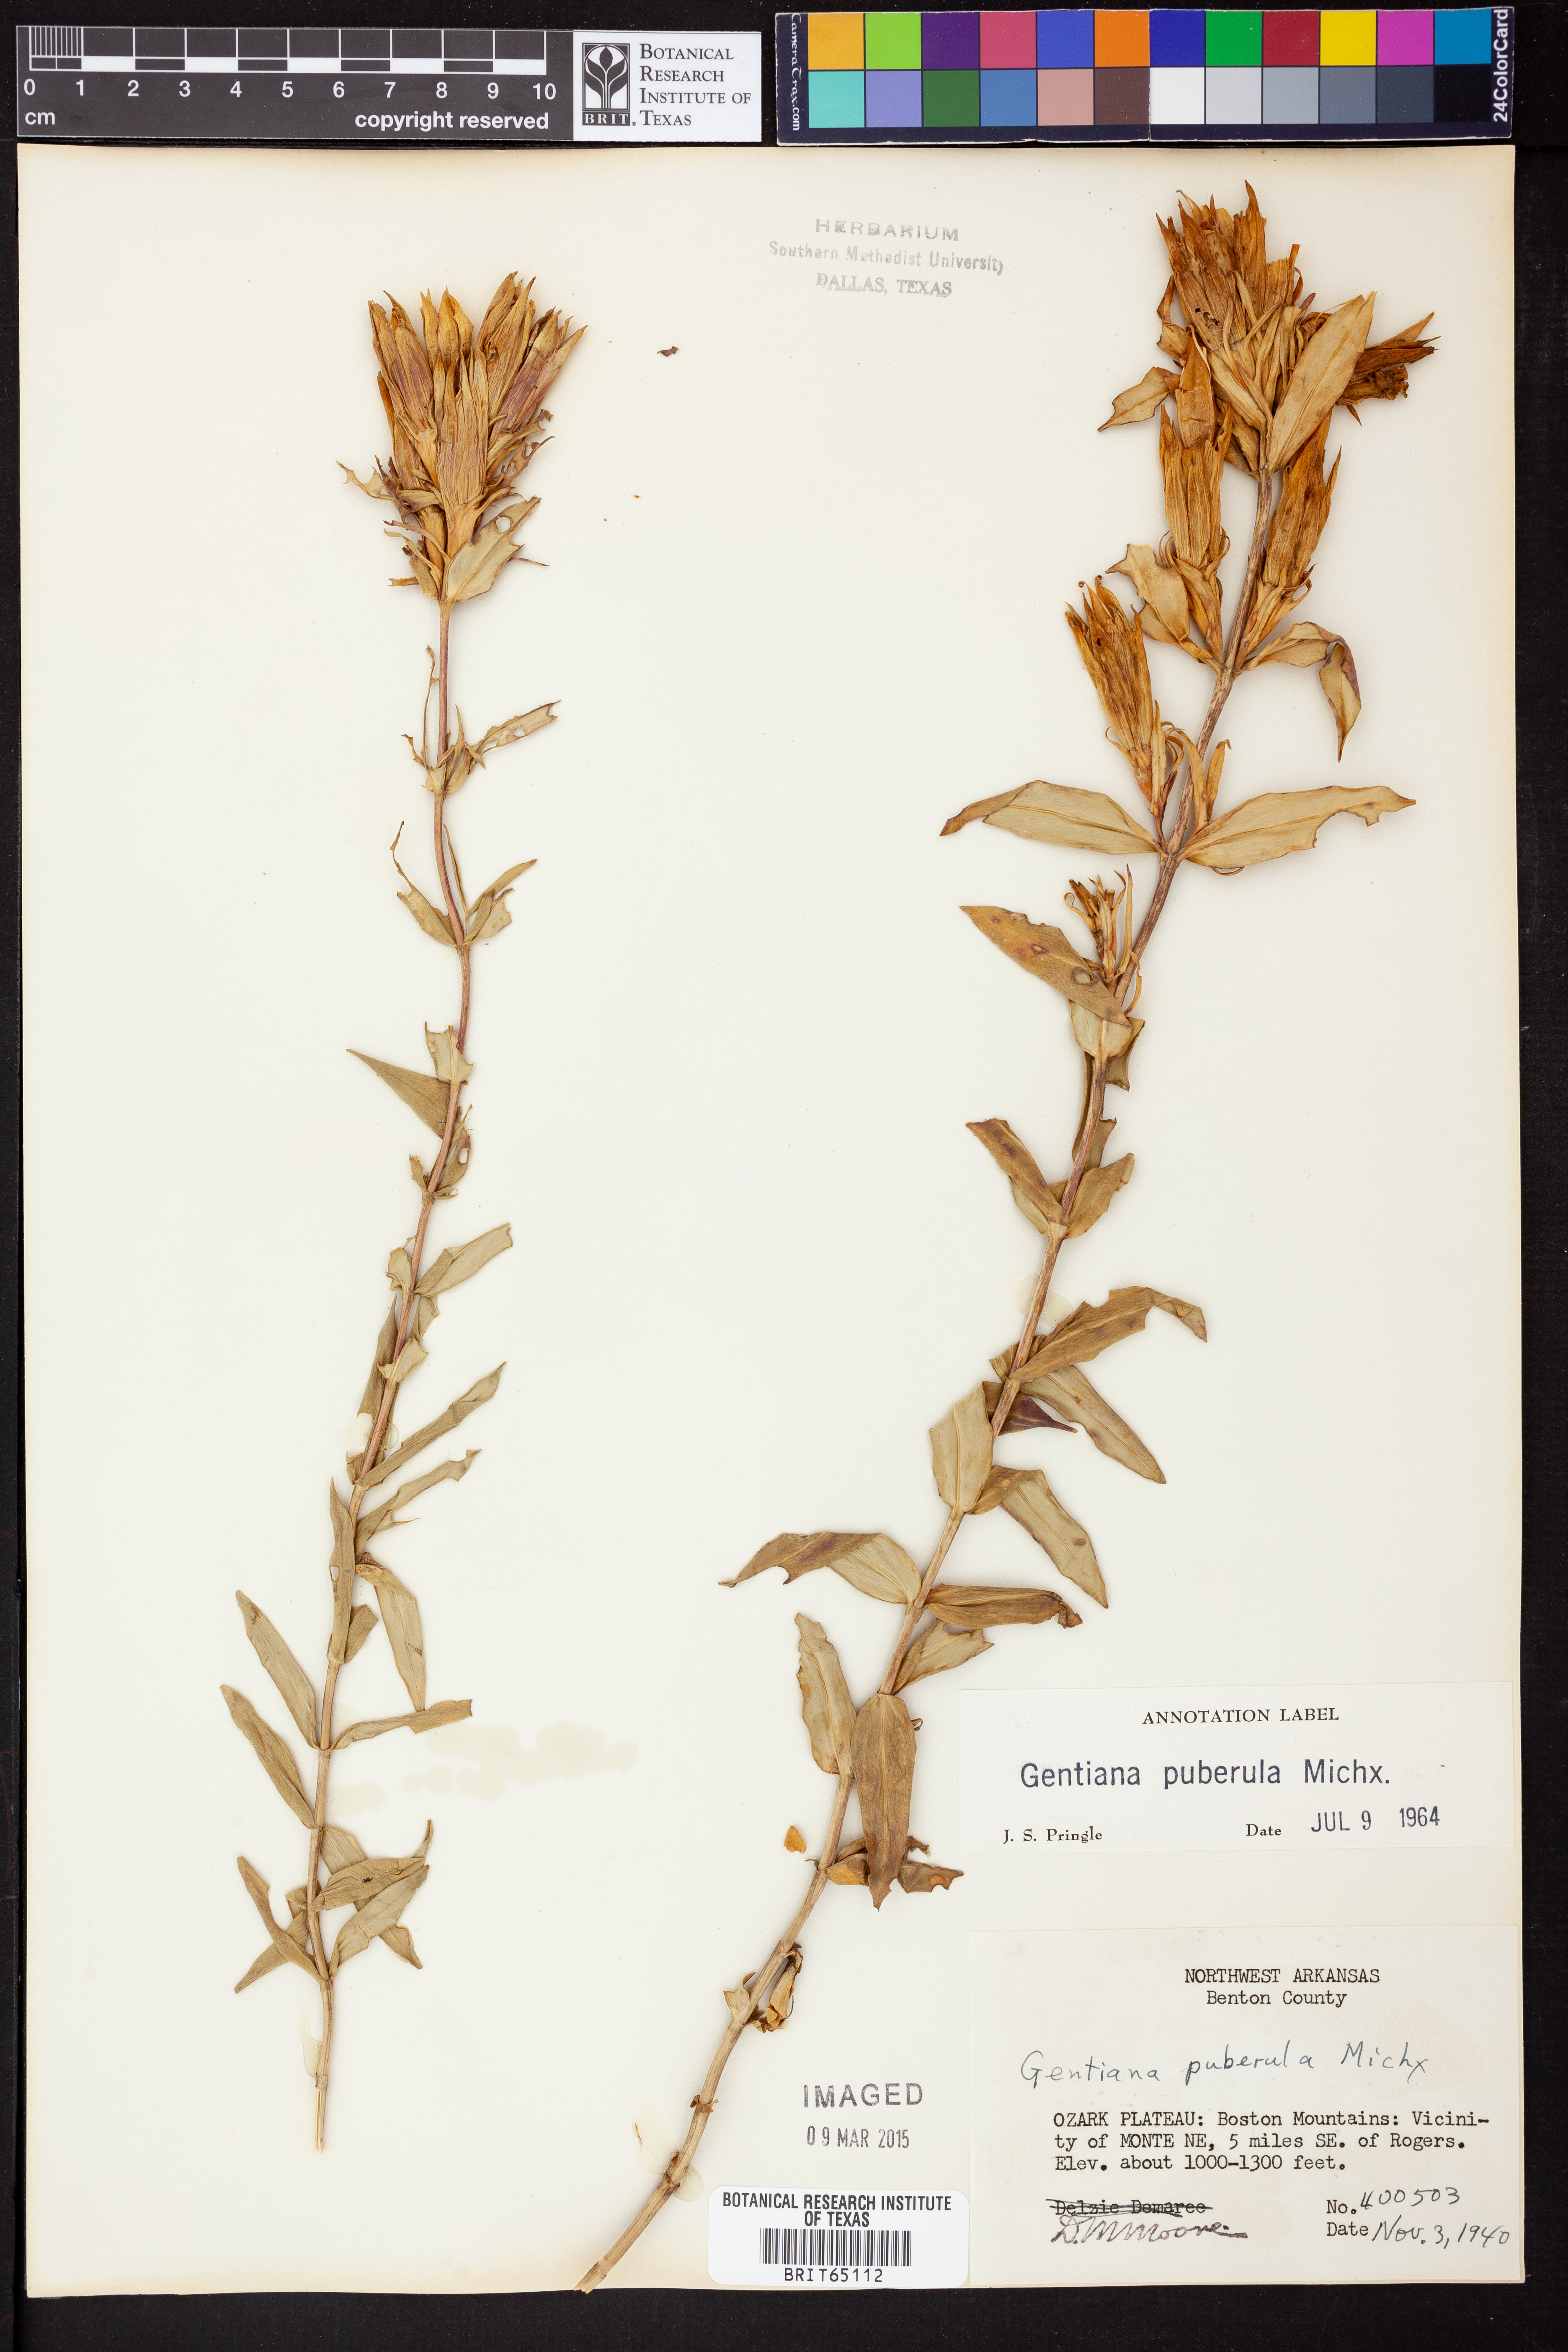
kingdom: Plantae
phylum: Tracheophyta
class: Magnoliopsida
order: Gentianales
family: Gentianaceae
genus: Gentiana
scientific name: Gentiana puberulenta
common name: Downy gentian
